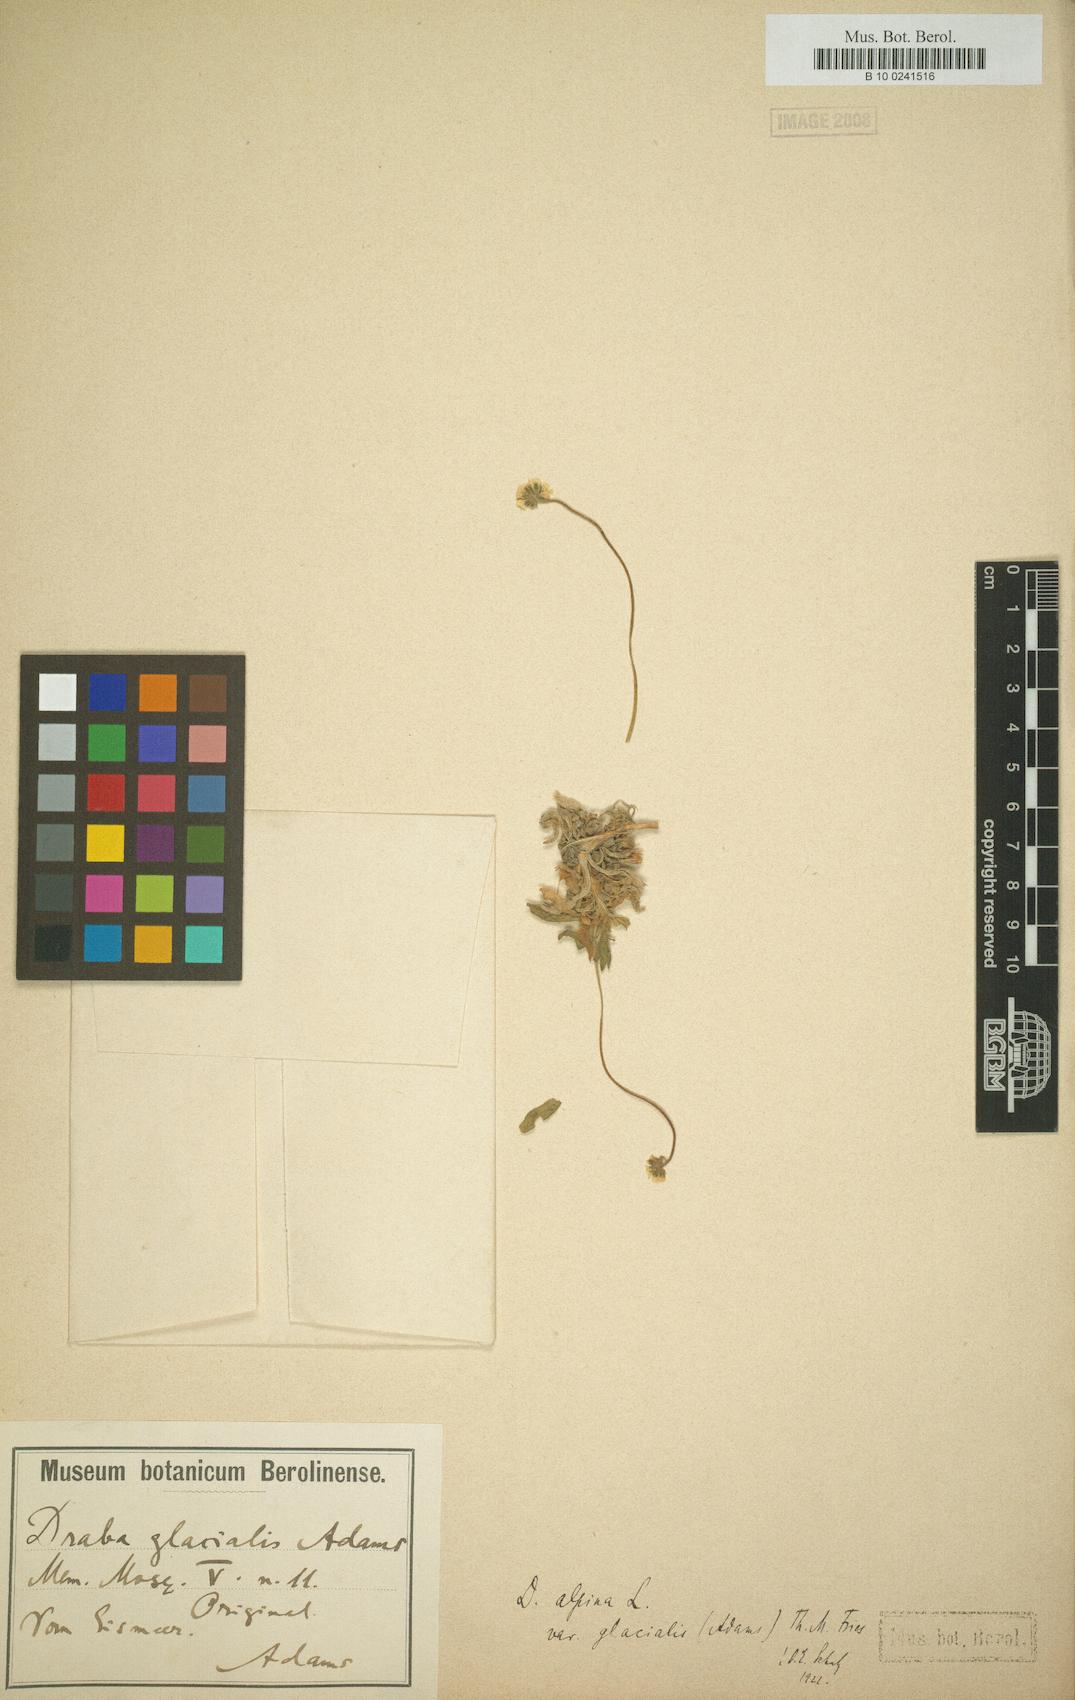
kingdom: Plantae
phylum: Tracheophyta
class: Magnoliopsida
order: Brassicales
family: Brassicaceae
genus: Draba
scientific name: Draba glacialis
